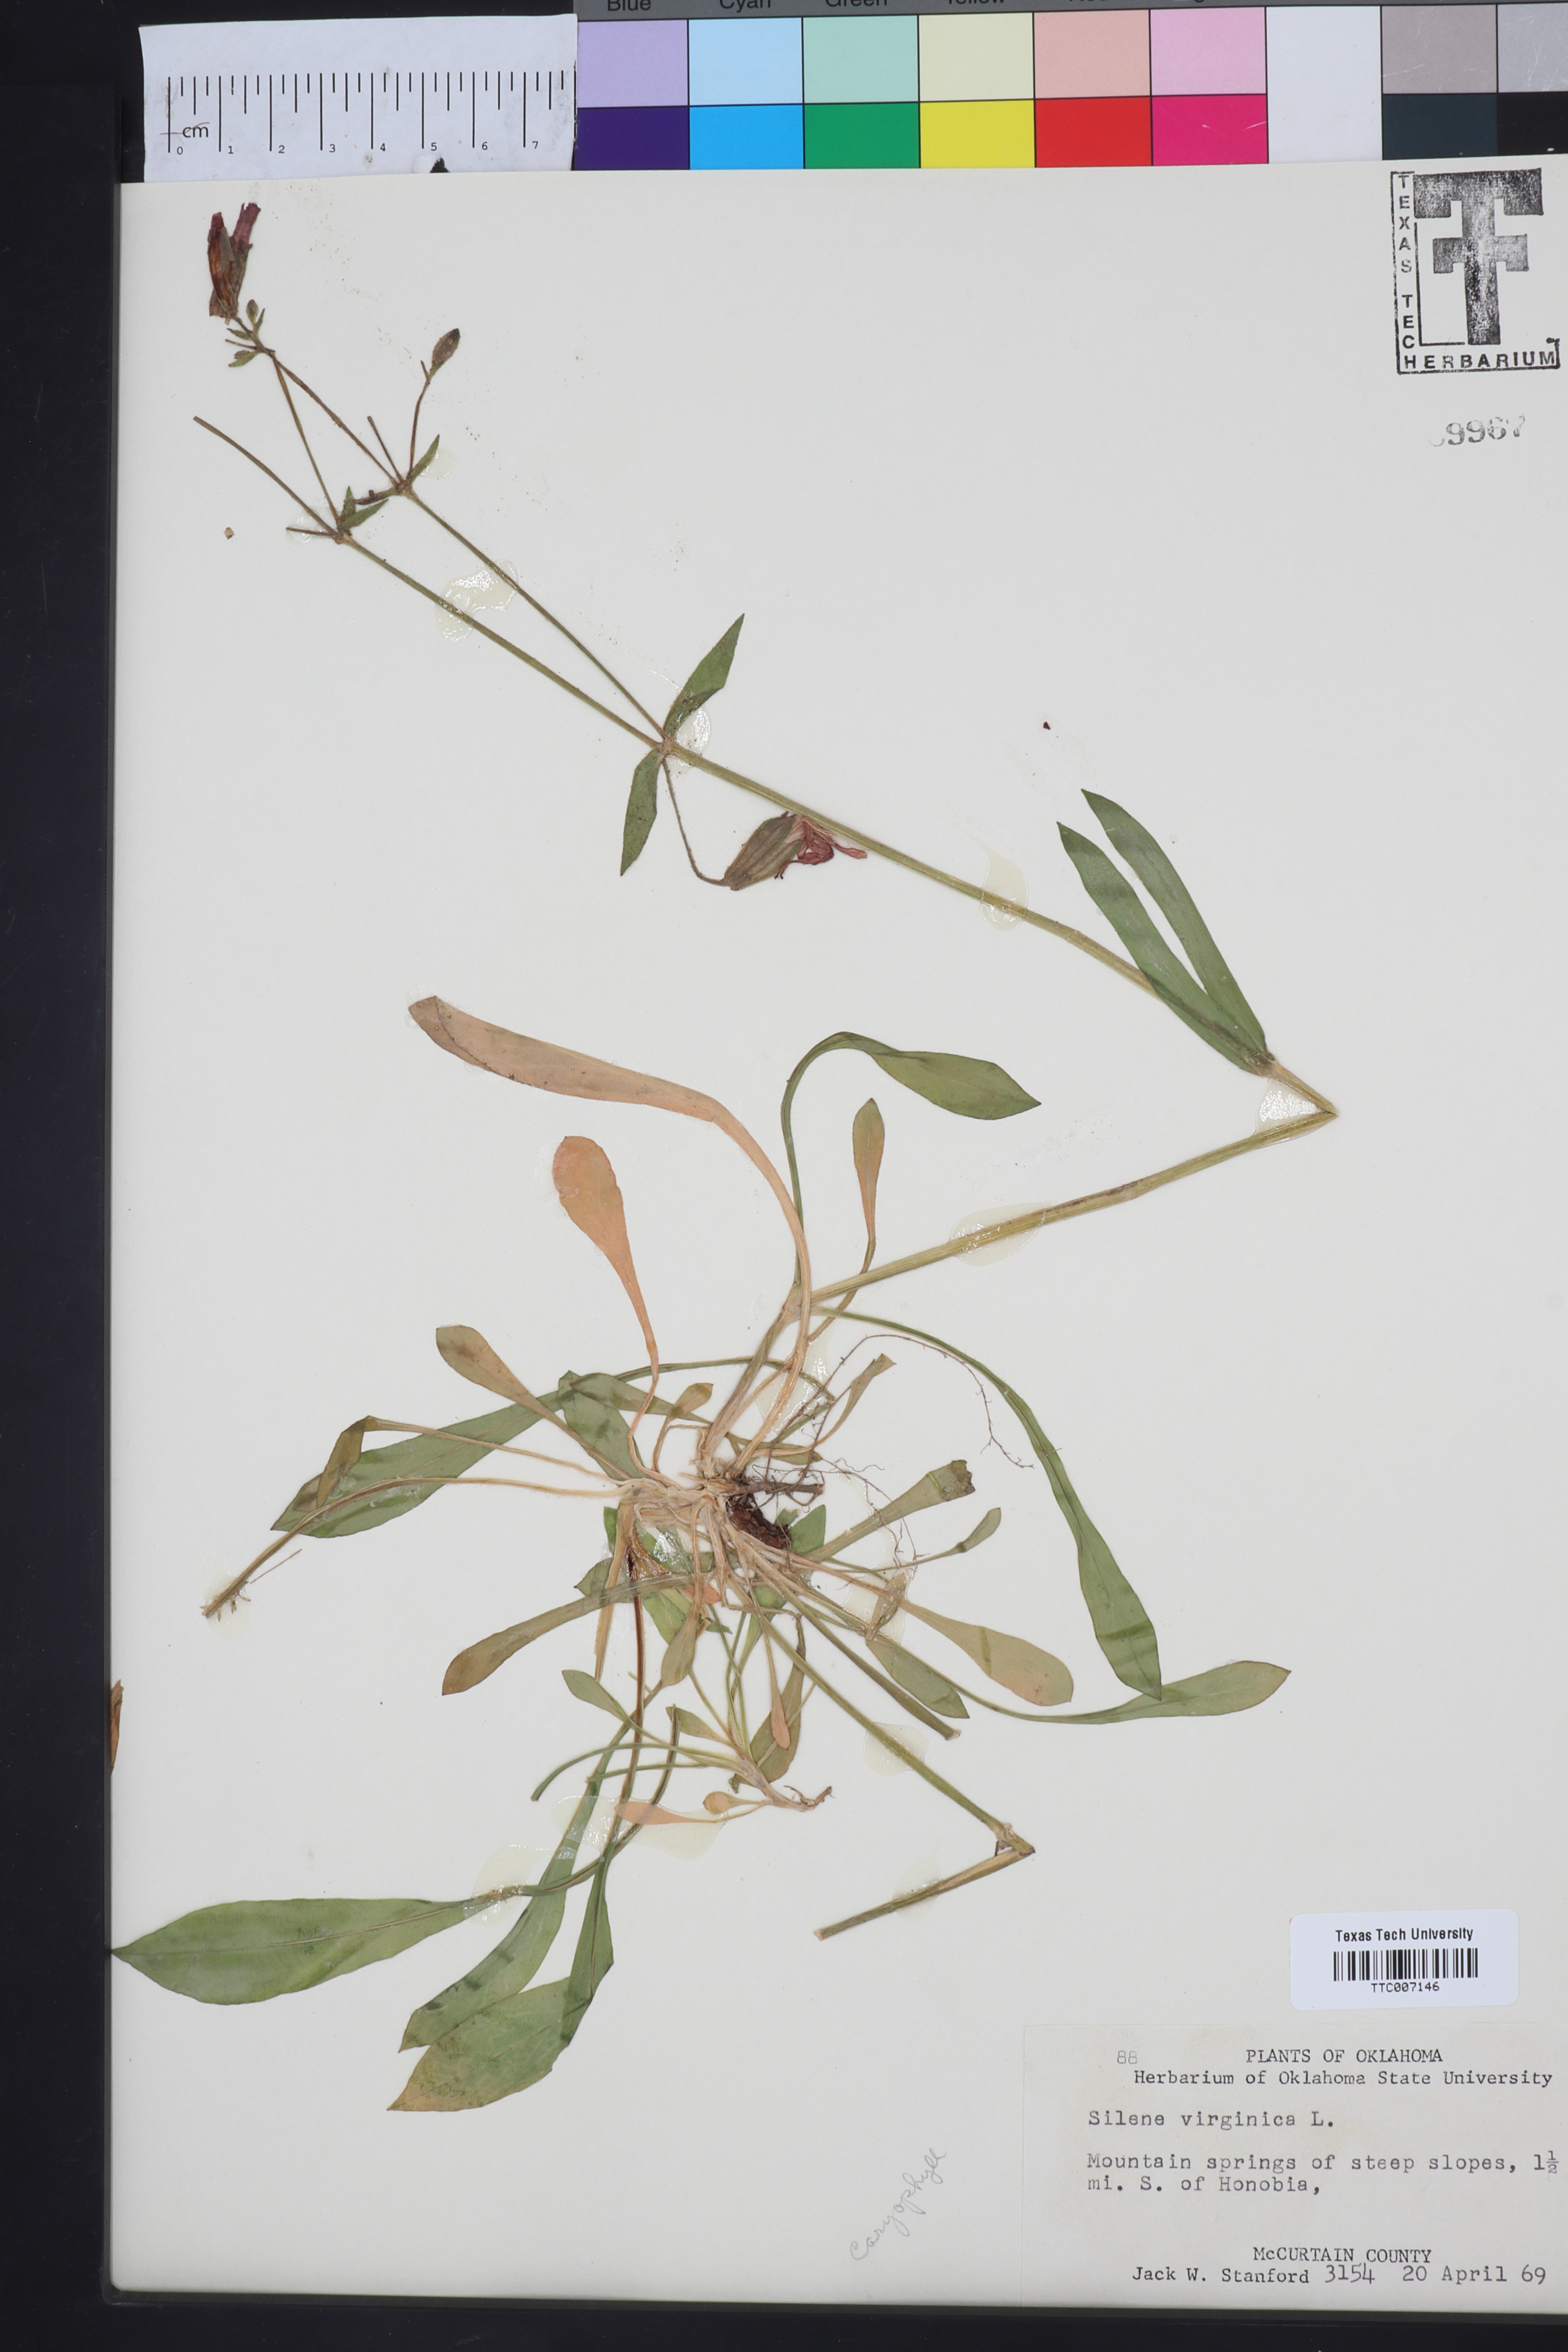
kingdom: Plantae
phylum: Tracheophyta
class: Magnoliopsida
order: Caryophyllales
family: Caryophyllaceae
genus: Silene
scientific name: Silene virginica
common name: Fire-pink
